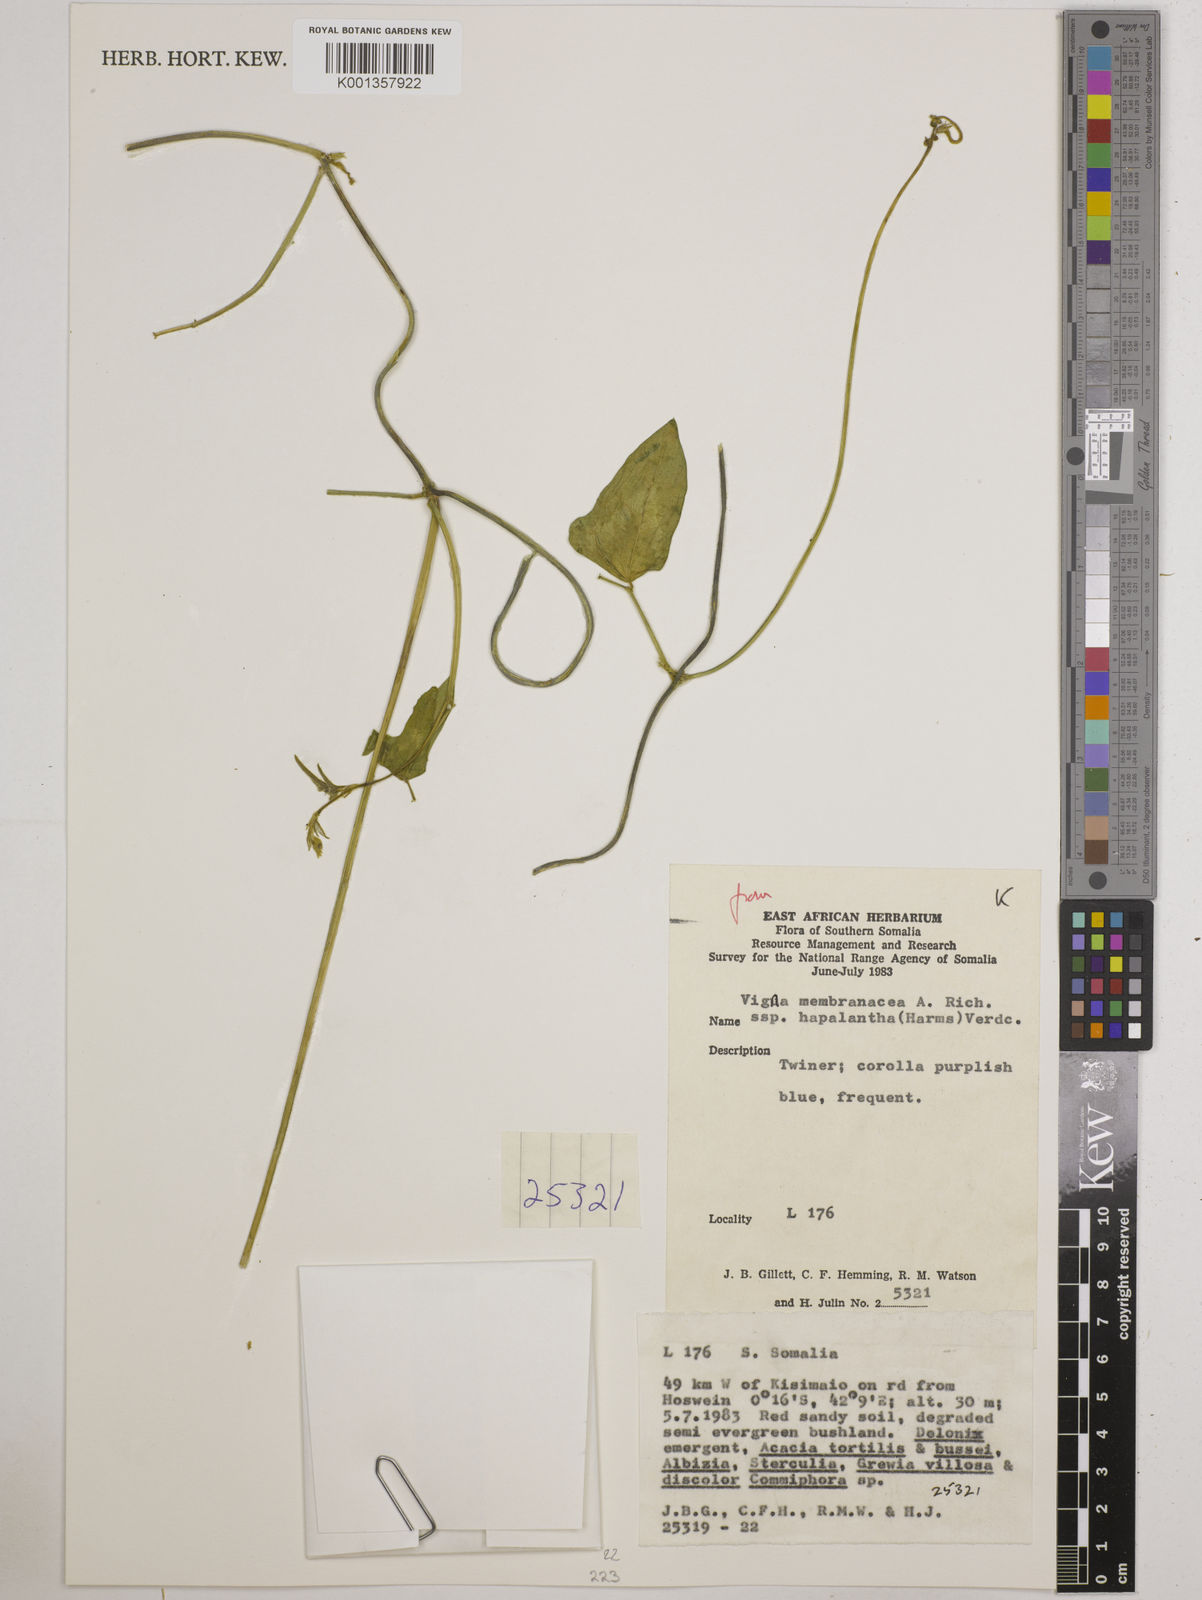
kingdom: Plantae
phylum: Tracheophyta
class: Magnoliopsida
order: Fabales
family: Fabaceae
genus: Vigna
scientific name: Vigna
